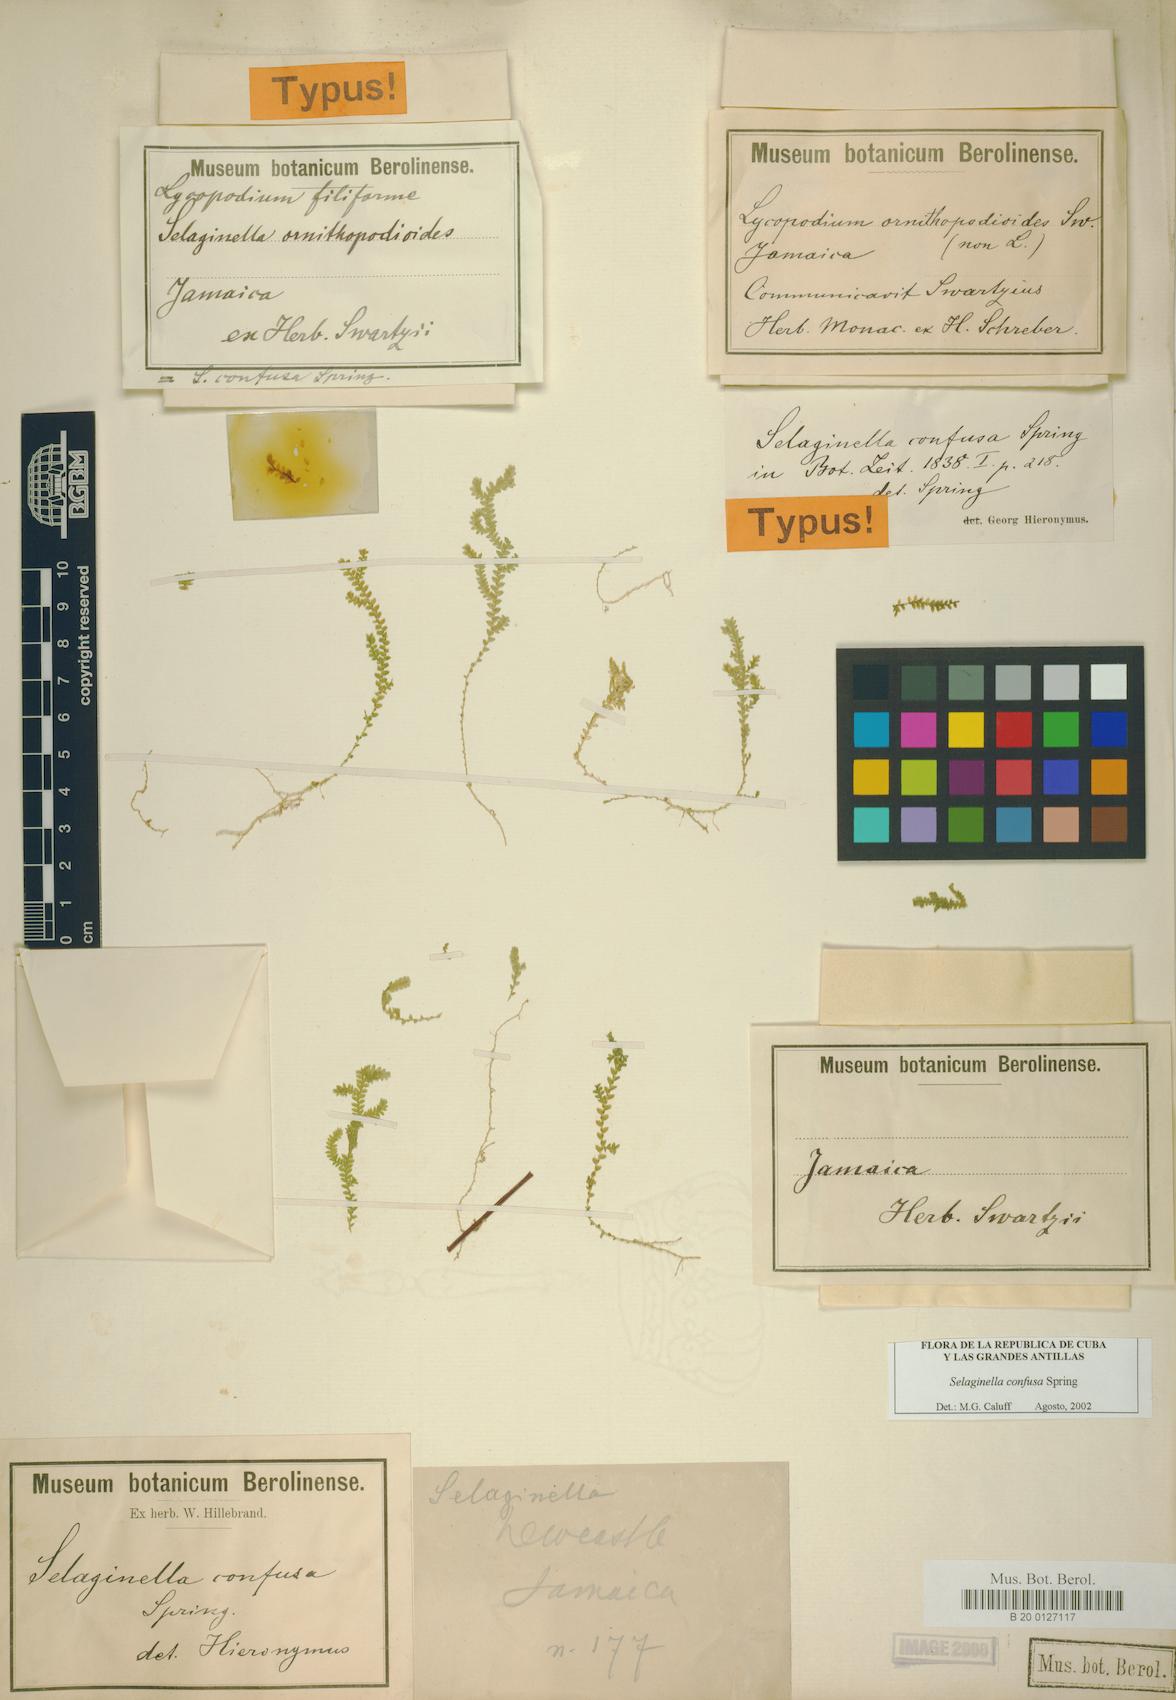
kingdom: Plantae
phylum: Tracheophyta
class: Lycopodiopsida
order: Selaginellales
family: Selaginellaceae
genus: Selaginella
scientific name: Selaginella confusa
